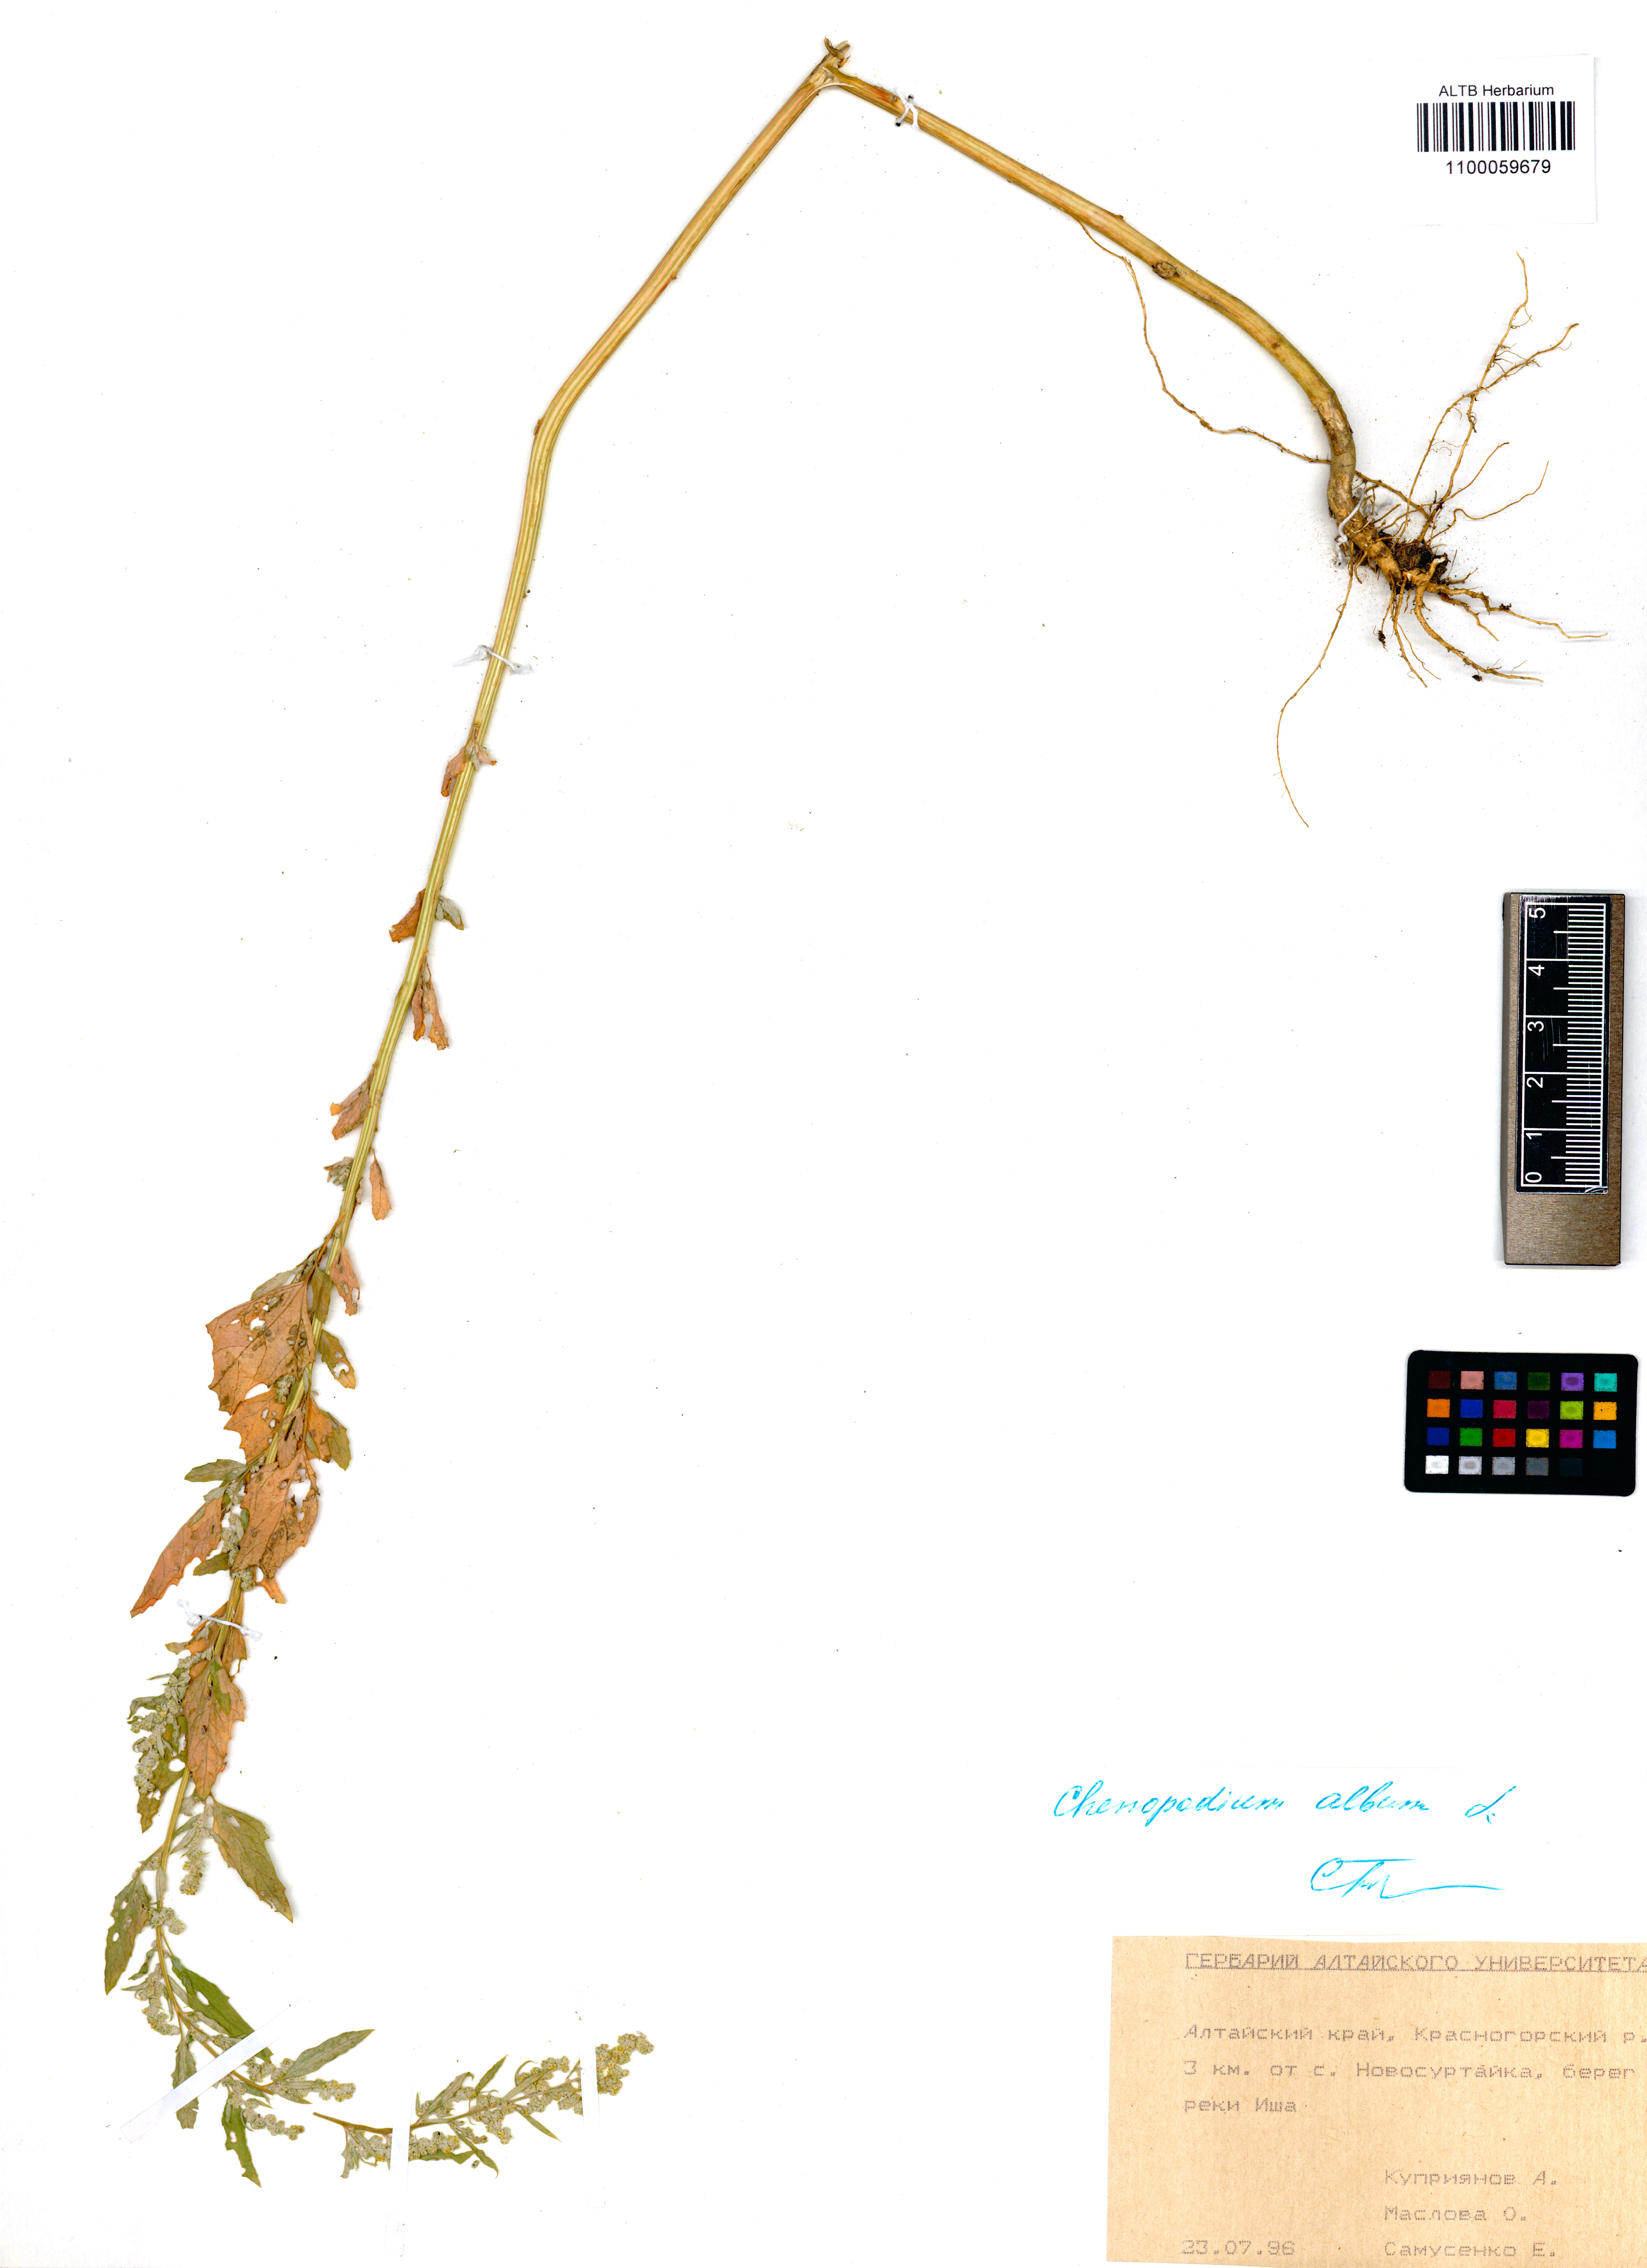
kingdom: Plantae
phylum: Tracheophyta
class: Magnoliopsida
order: Caryophyllales
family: Amaranthaceae
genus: Chenopodium
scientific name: Chenopodium album
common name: Fat-hen
